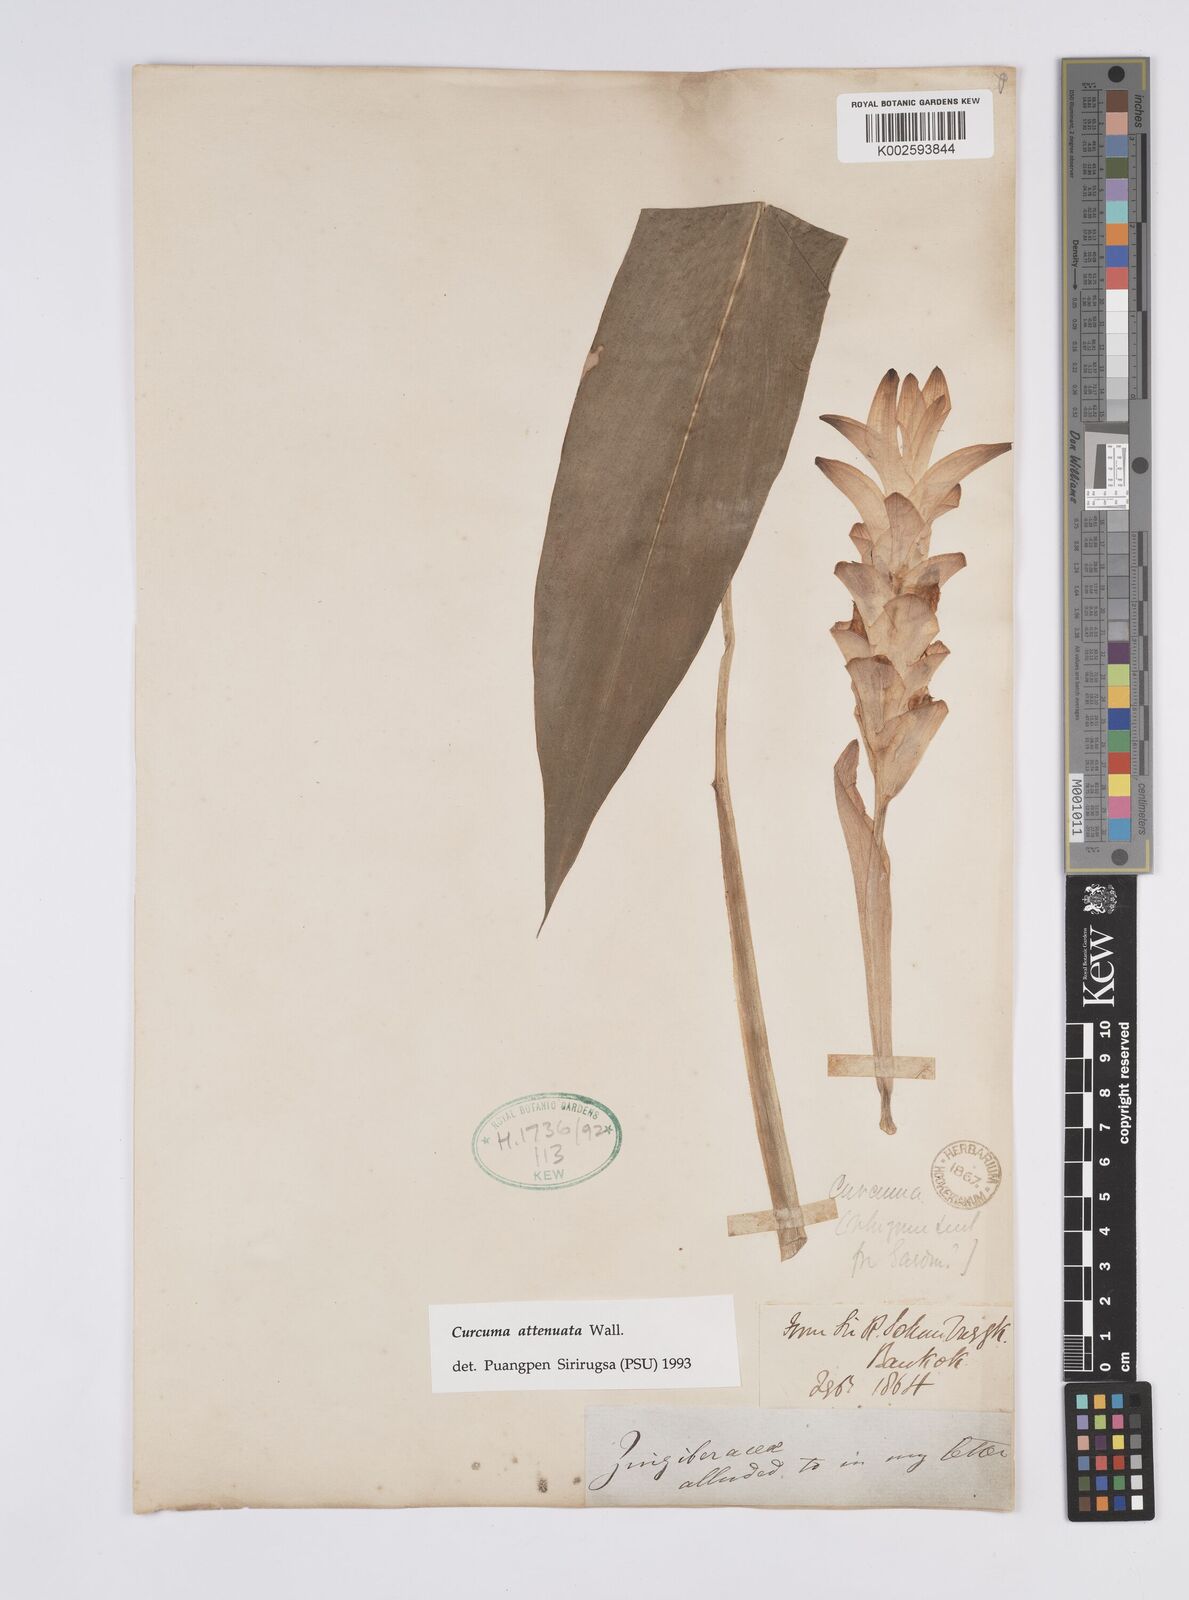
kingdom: Plantae
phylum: Tracheophyta
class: Liliopsida
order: Zingiberales
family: Zingiberaceae
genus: Curcuma
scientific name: Curcuma attenuata
